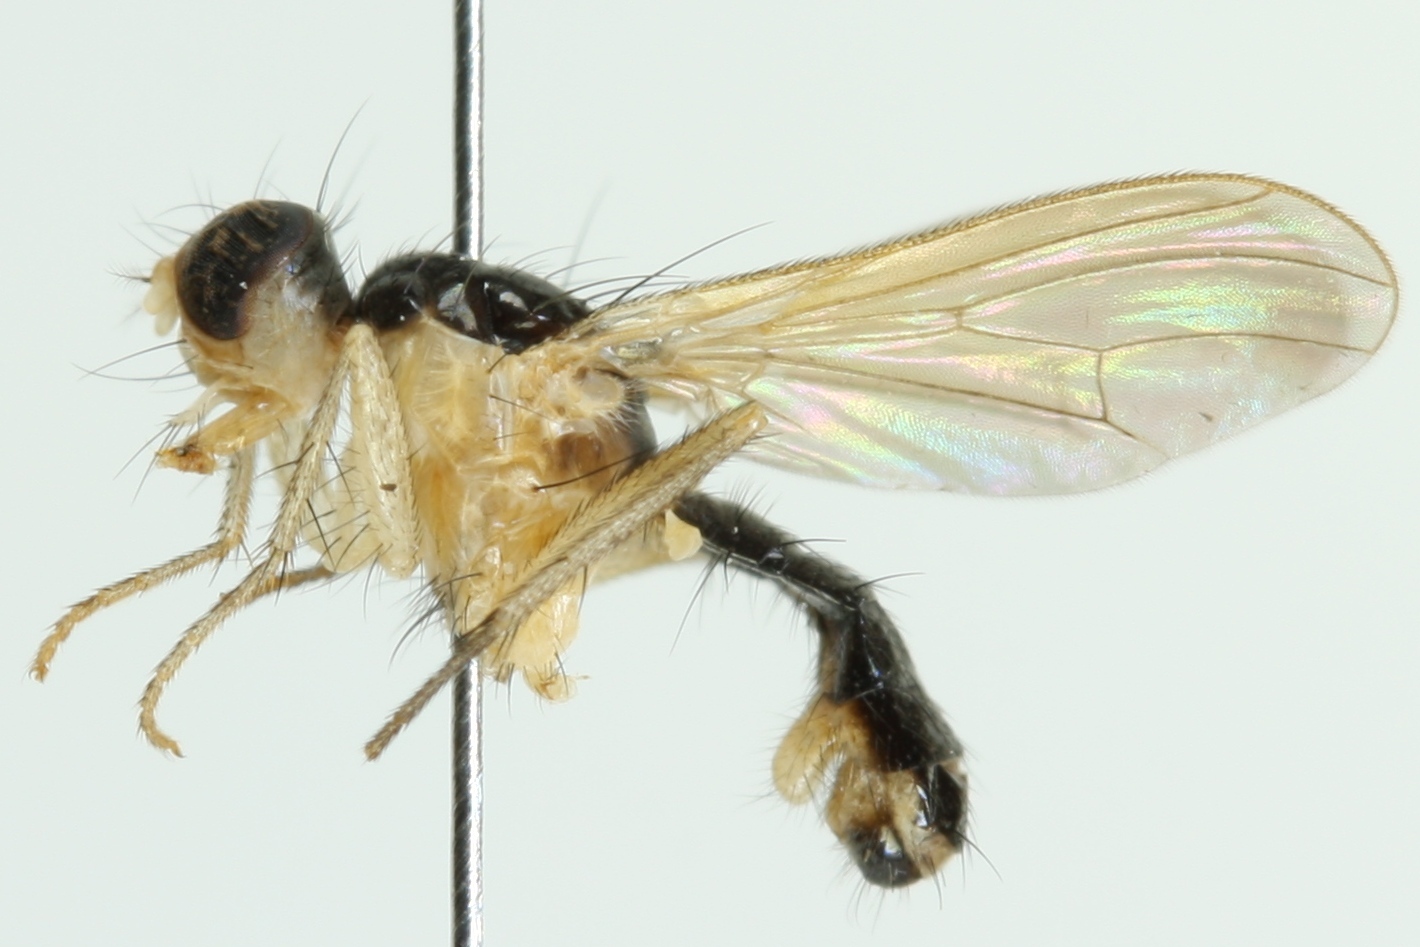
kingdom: Animalia
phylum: Arthropoda
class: Insecta
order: Diptera
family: Scathophagidae
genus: Cordilura
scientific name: Cordilura albipes
